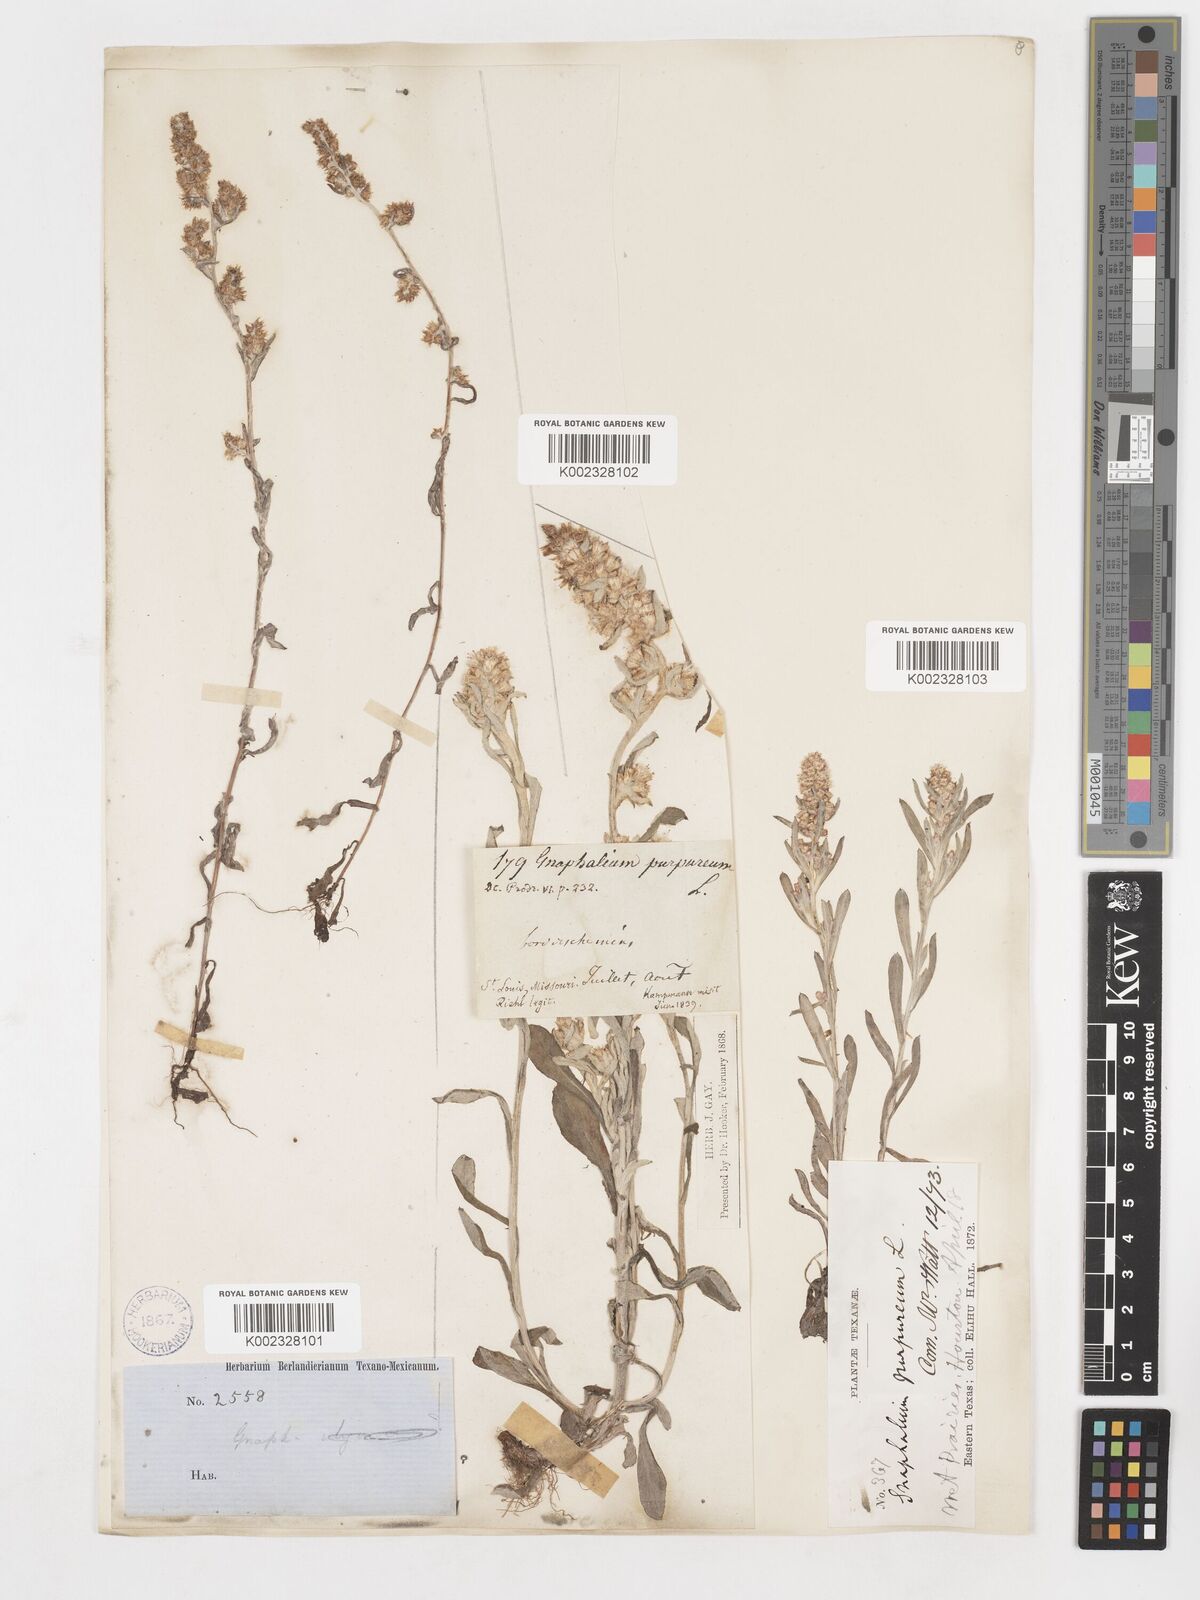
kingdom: Plantae
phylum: Tracheophyta
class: Magnoliopsida
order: Asterales
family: Asteraceae
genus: Gamochaeta
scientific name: Gamochaeta purpurea
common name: Purple cudweed
